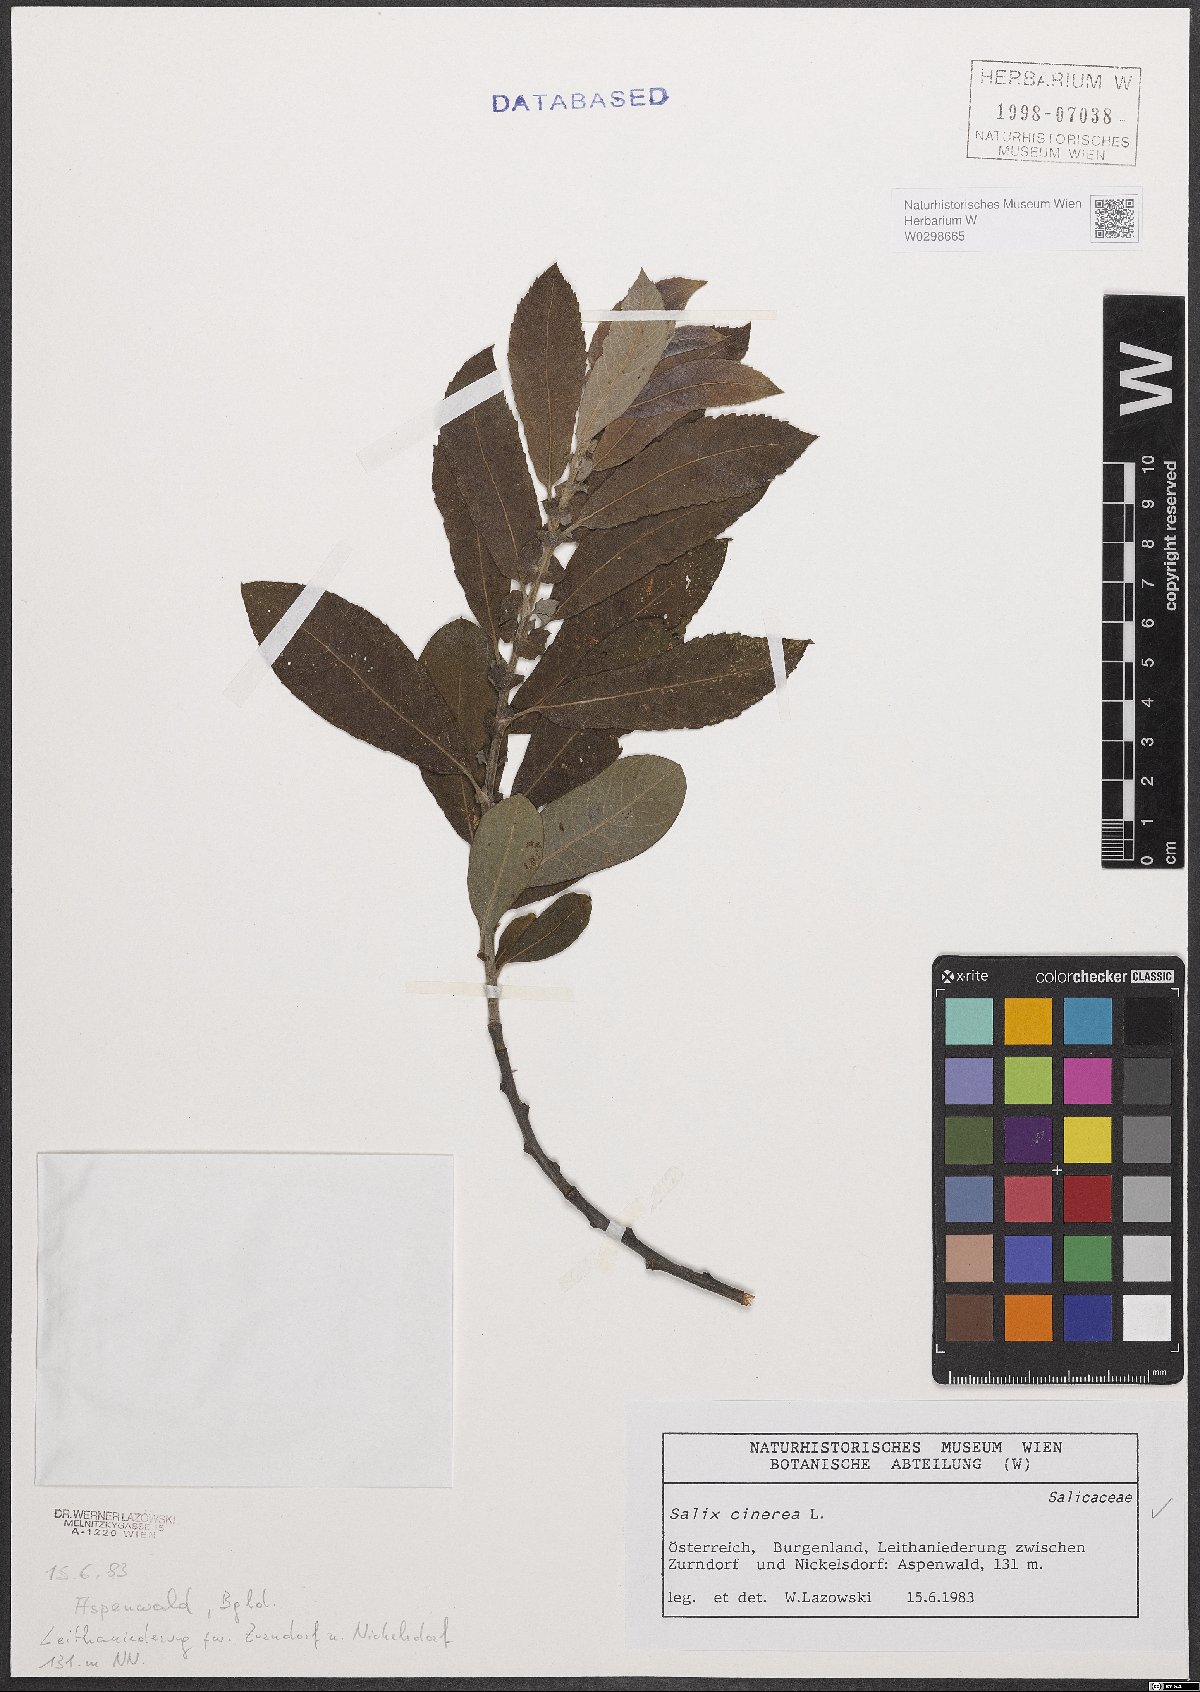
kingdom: Plantae
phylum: Tracheophyta
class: Magnoliopsida
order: Malpighiales
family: Salicaceae
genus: Salix
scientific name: Salix cinerea
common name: Common sallow
